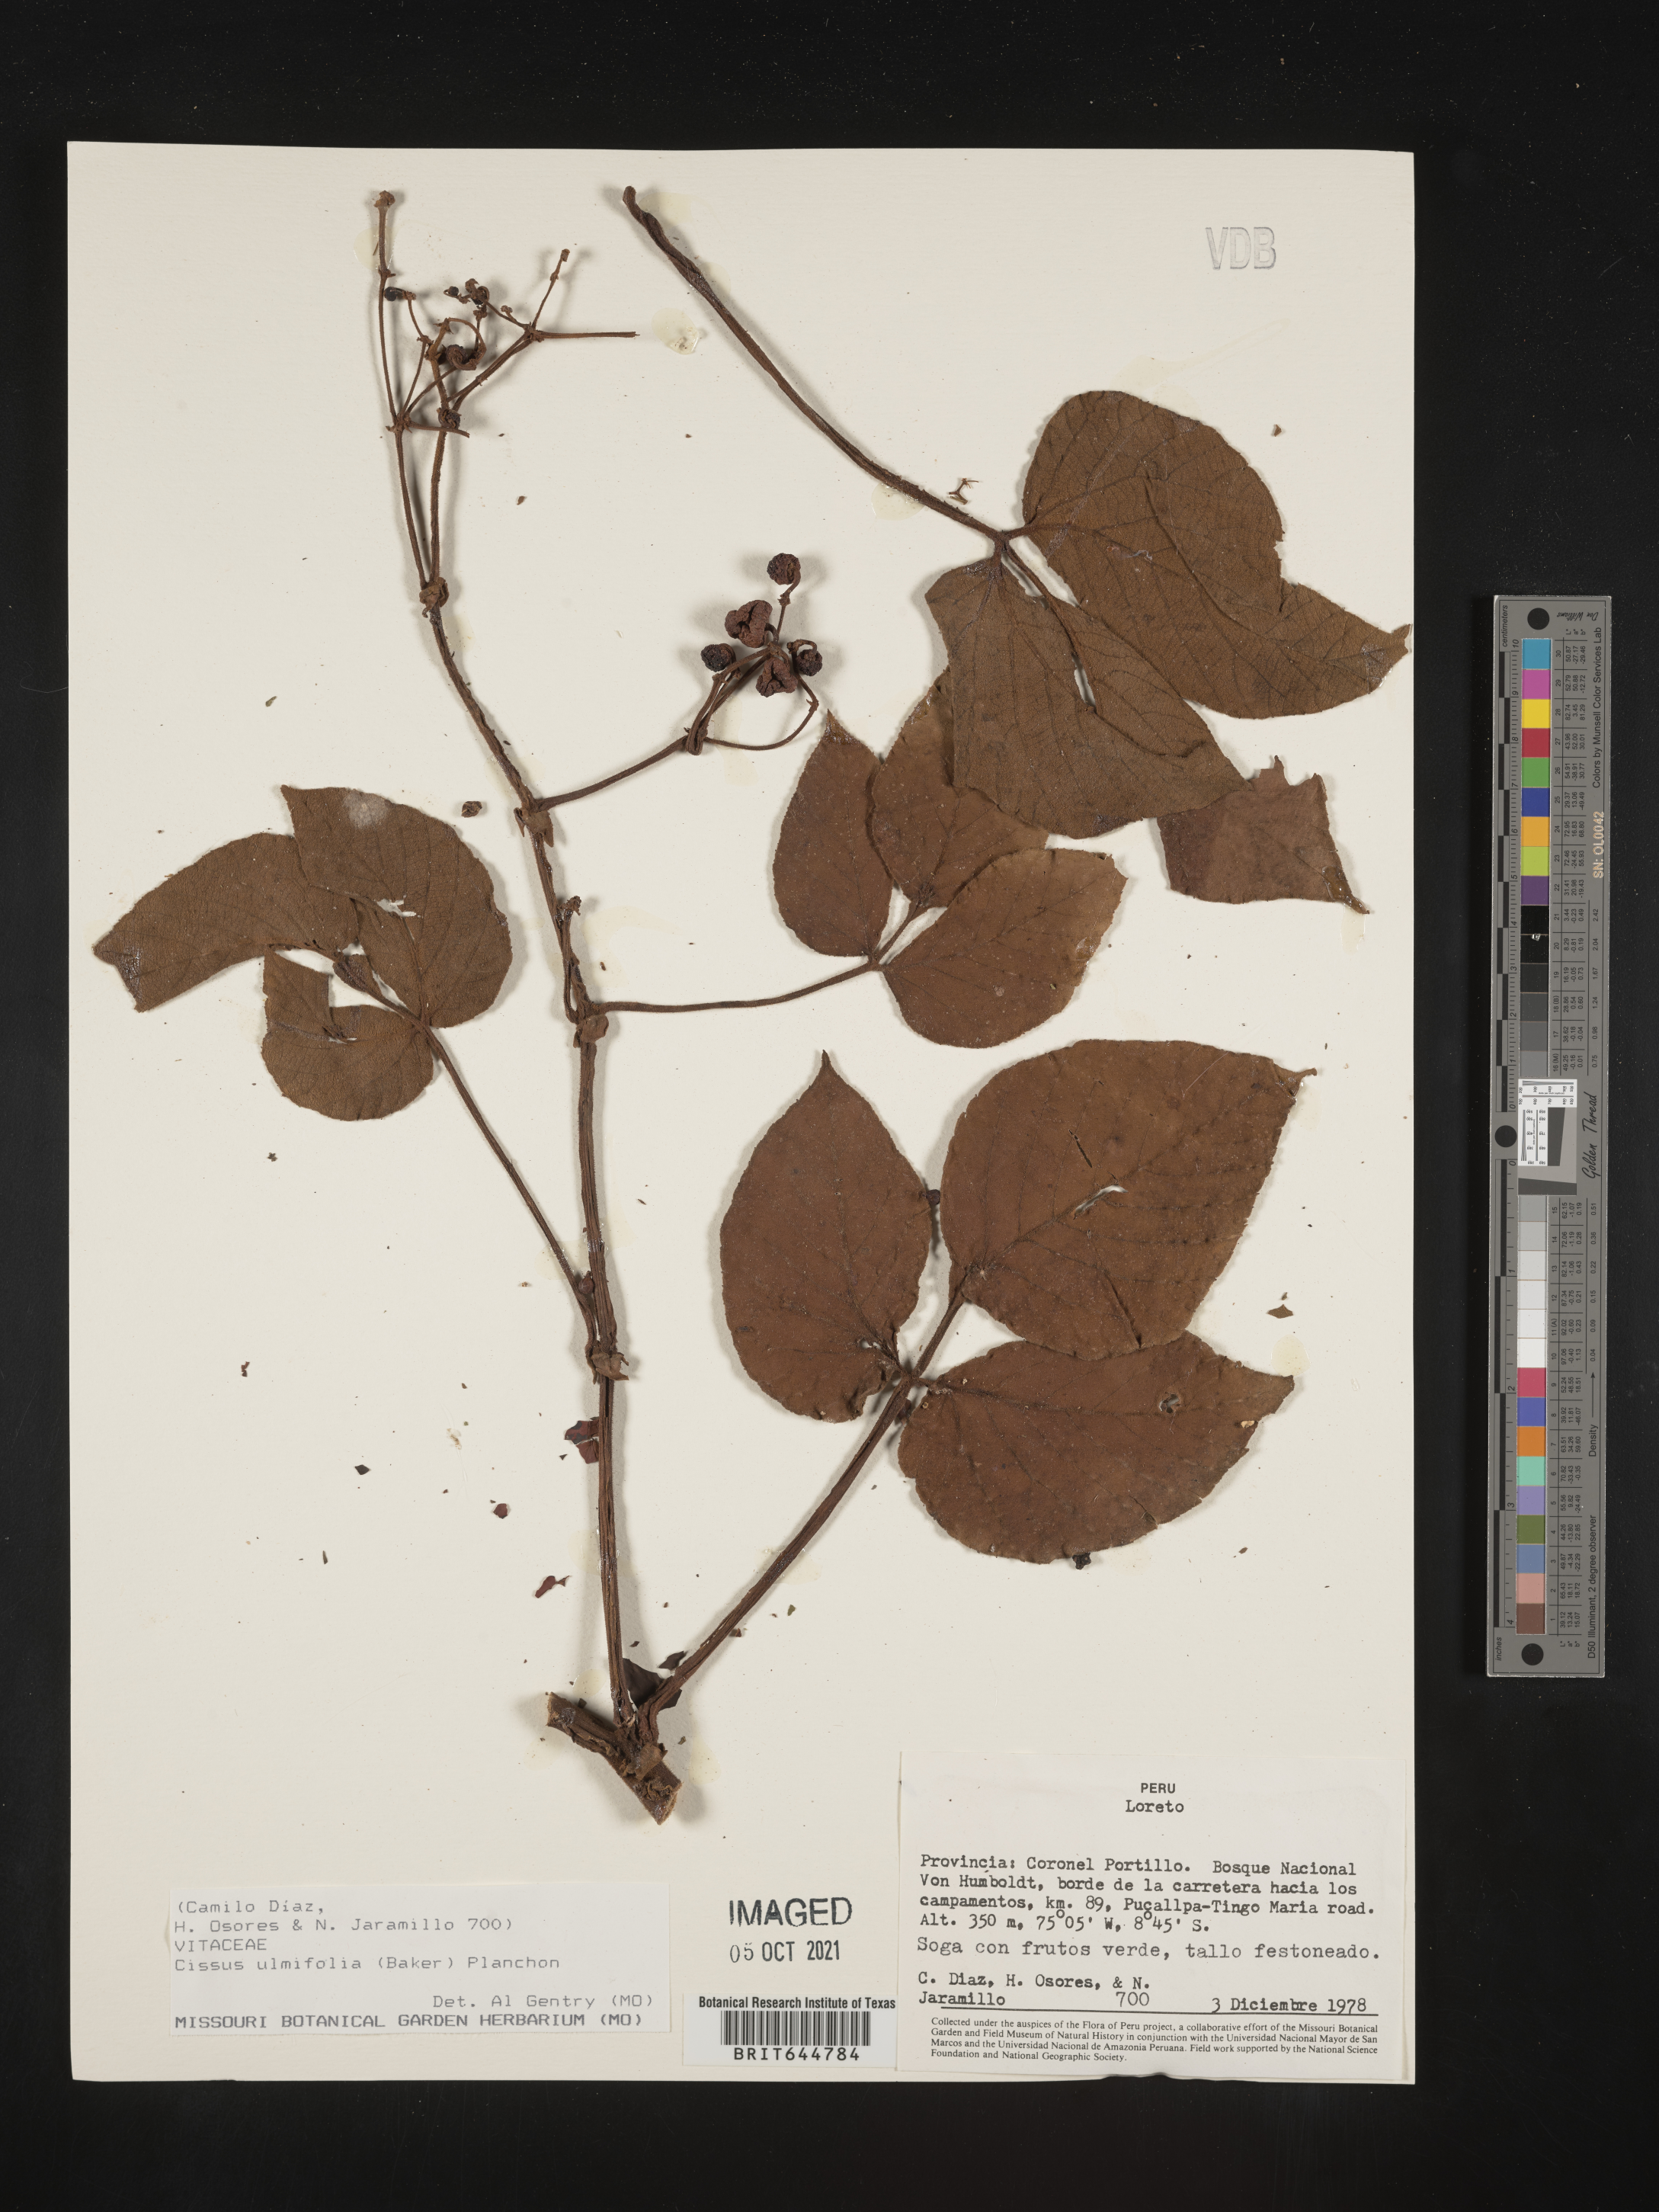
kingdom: Plantae
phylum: Tracheophyta
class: Magnoliopsida
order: Vitales
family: Vitaceae
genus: Cissus
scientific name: Cissus
